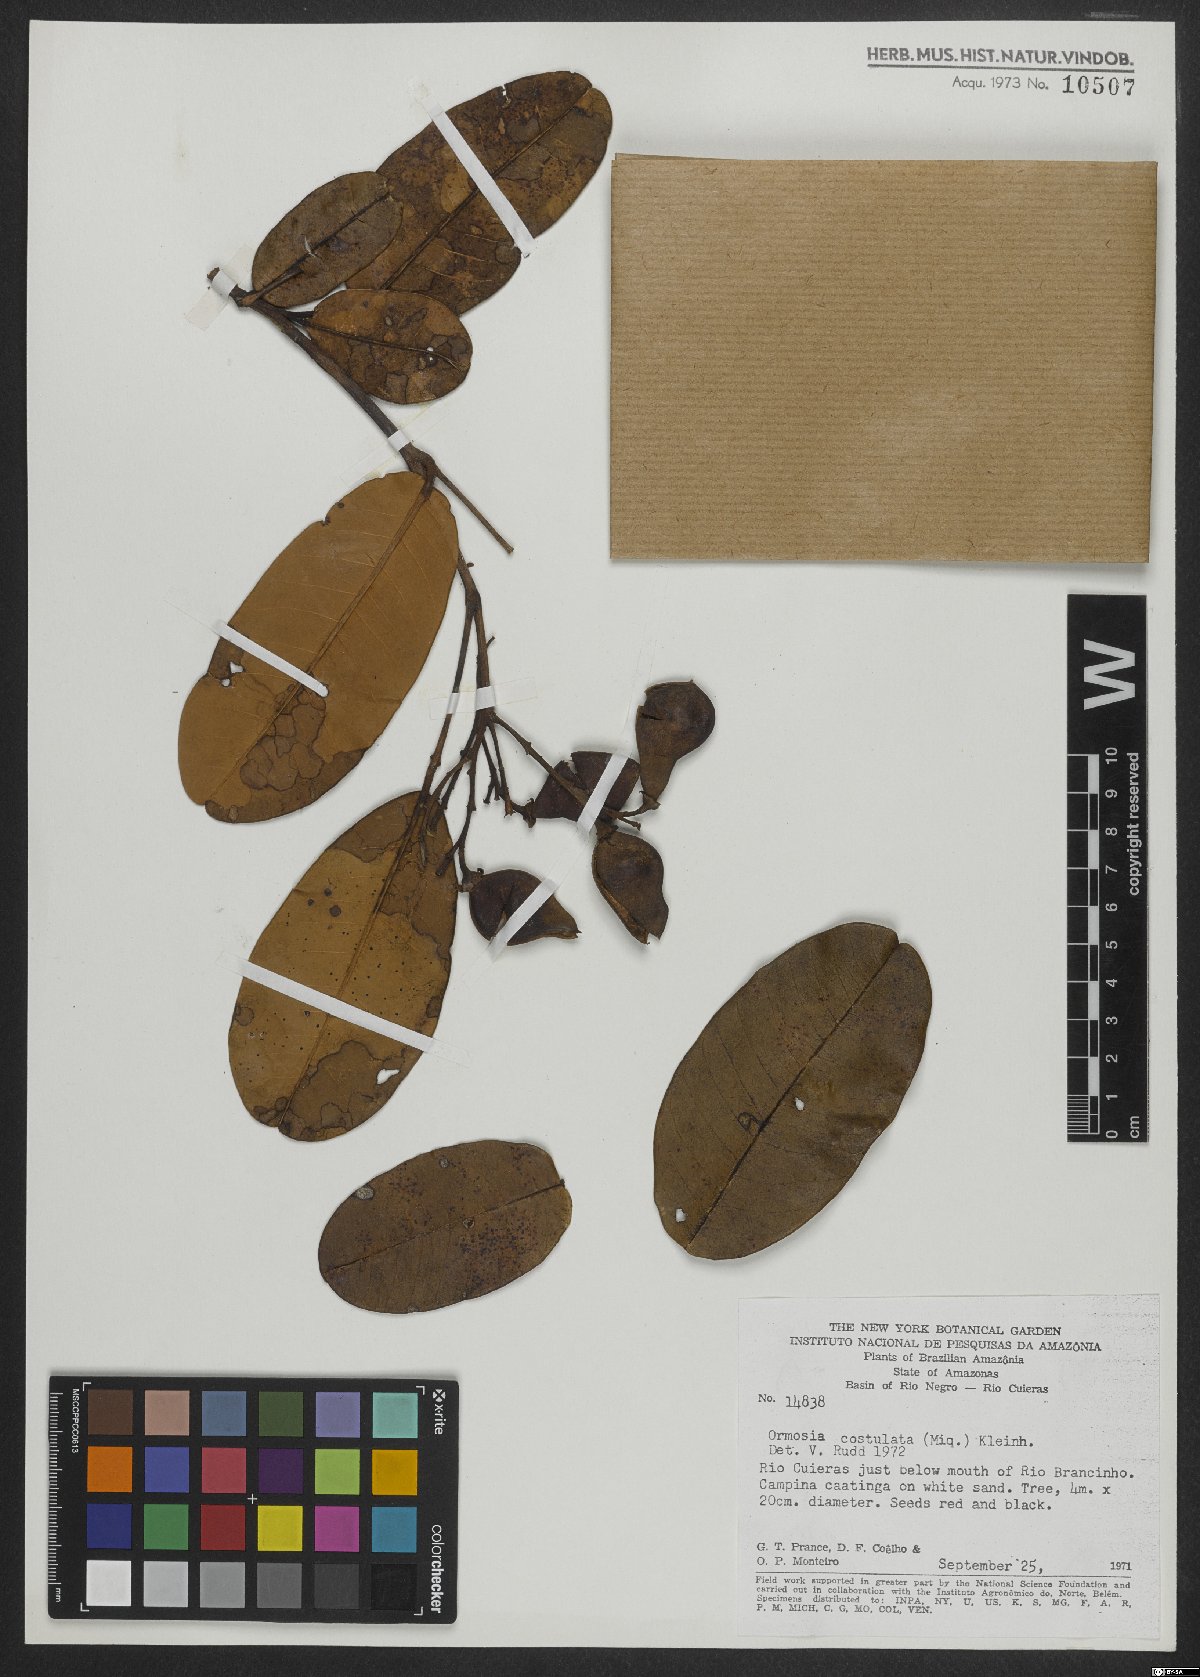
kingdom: Plantae
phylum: Tracheophyta
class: Magnoliopsida
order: Fabales
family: Fabaceae
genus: Ormosia
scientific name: Ormosia costulata
